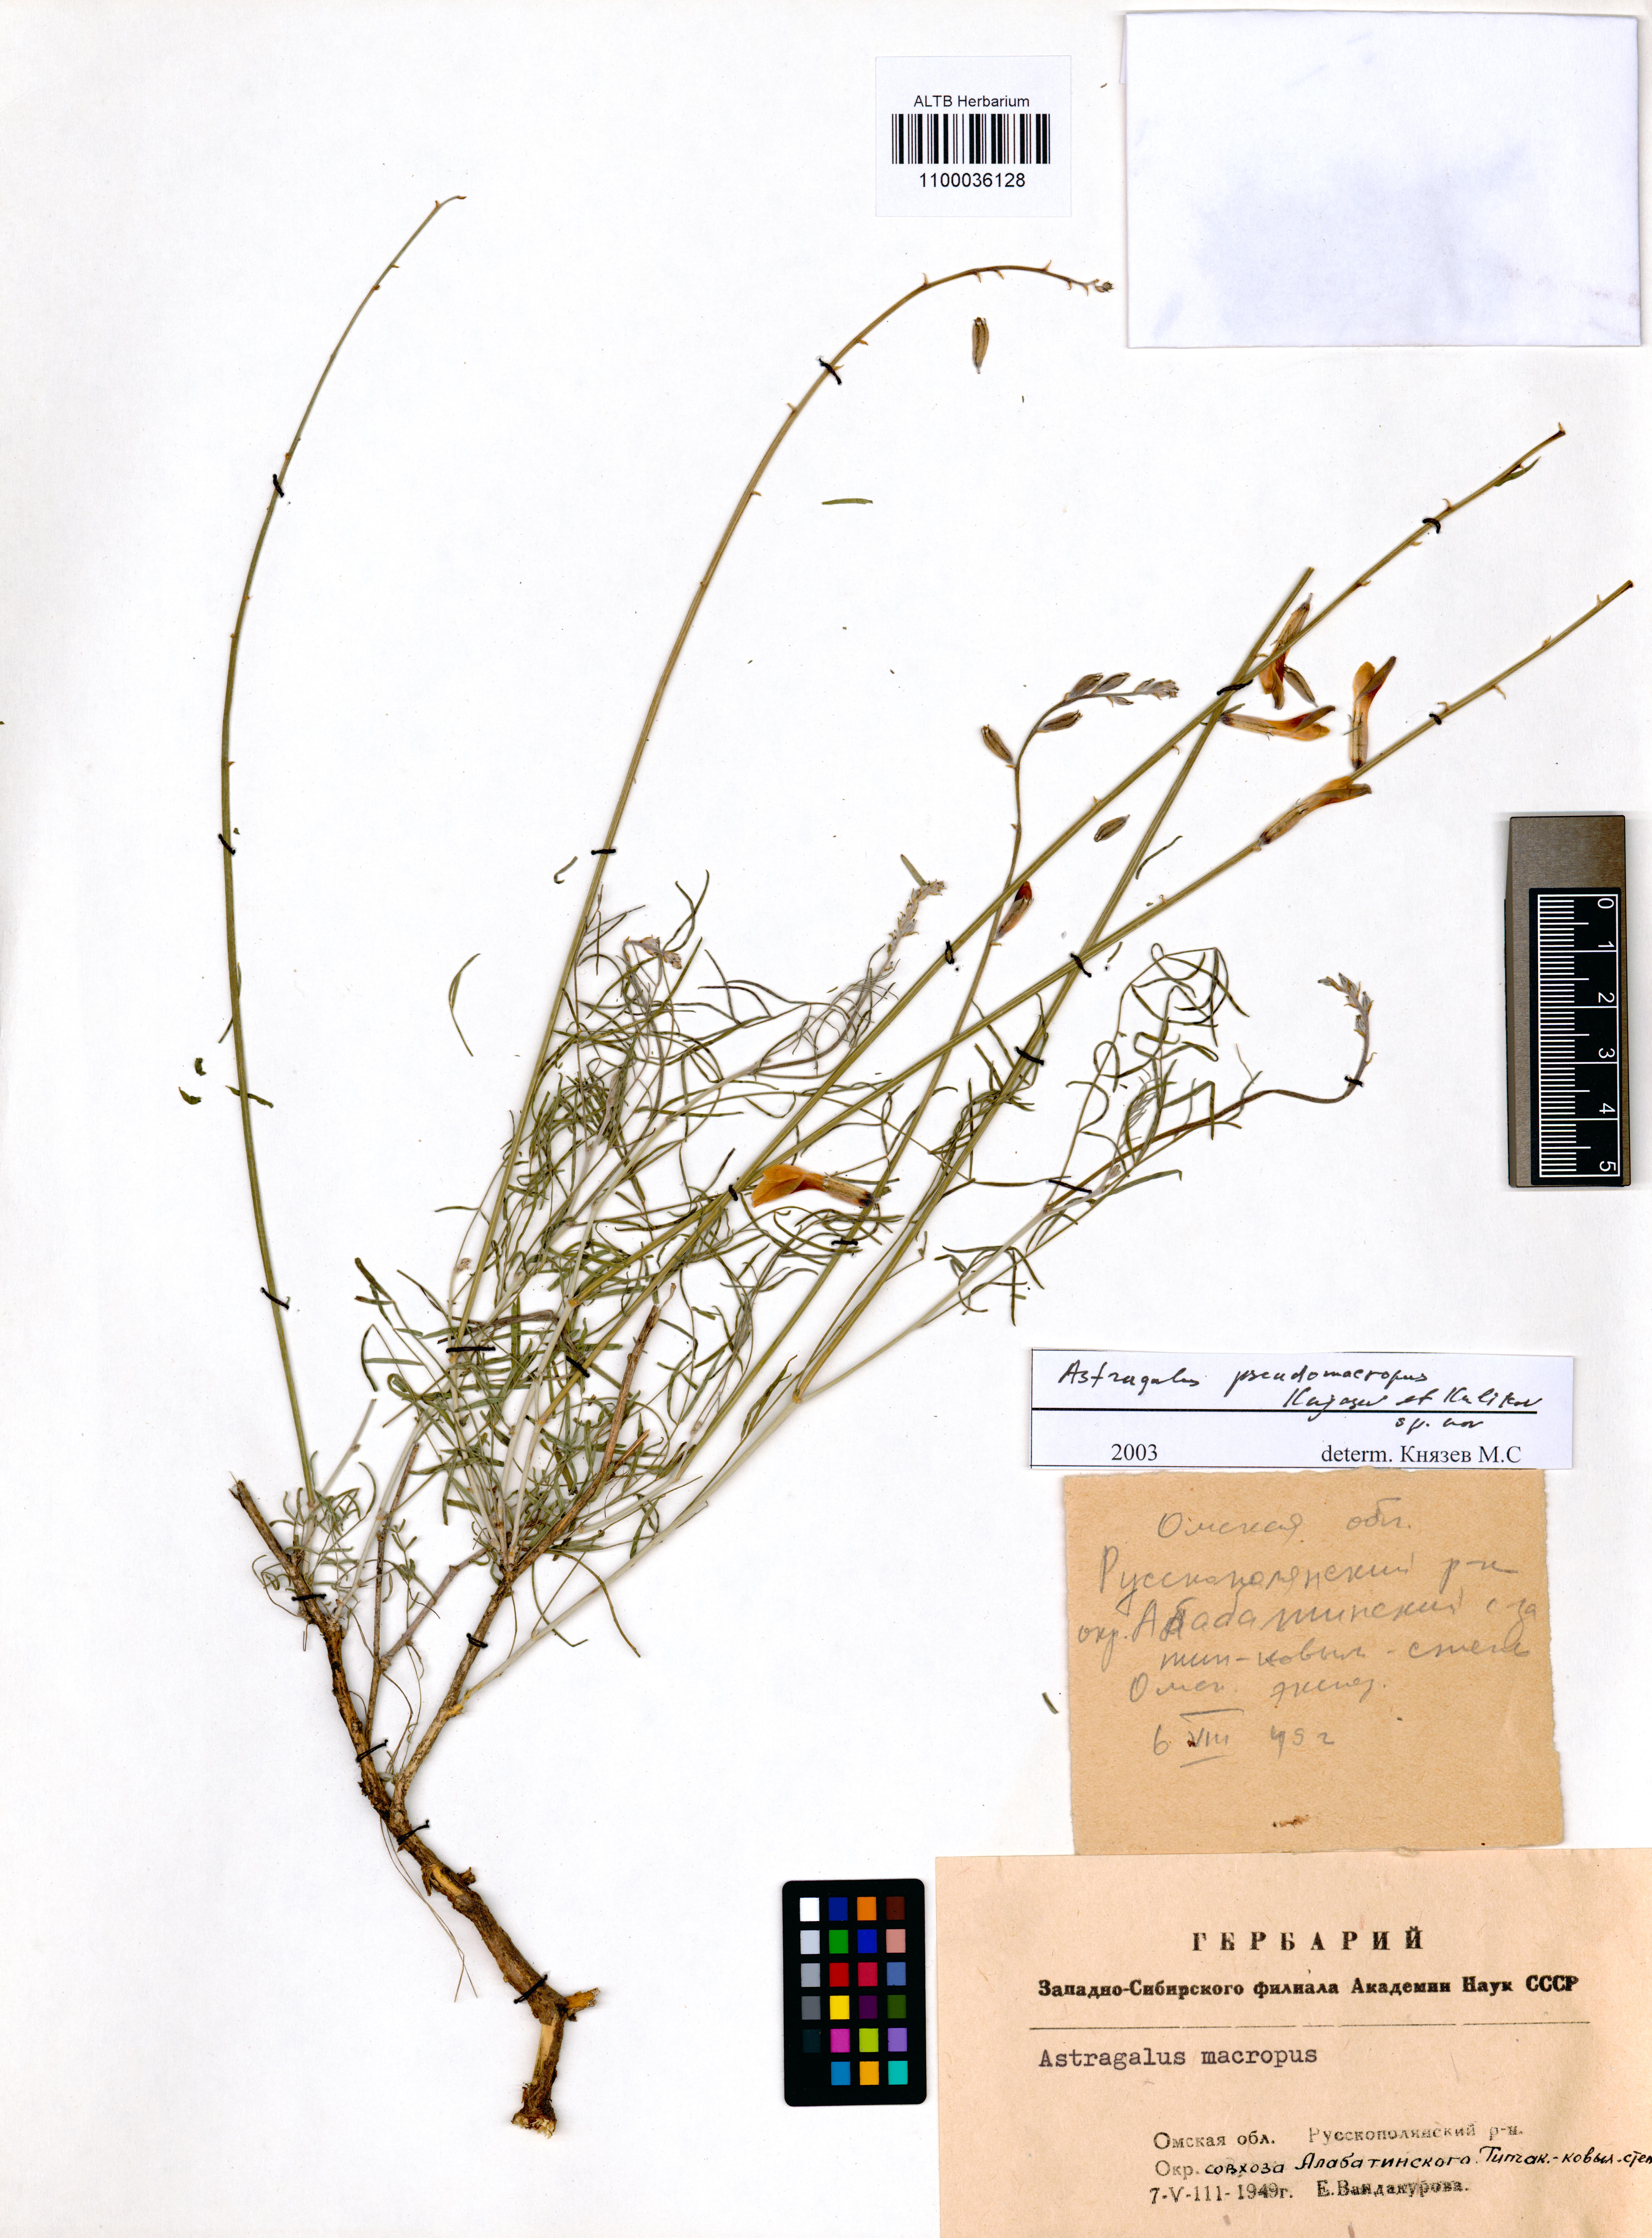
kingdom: Plantae
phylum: Tracheophyta
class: Magnoliopsida
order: Fabales
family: Fabaceae
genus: Astragalus
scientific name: Astragalus macropus
